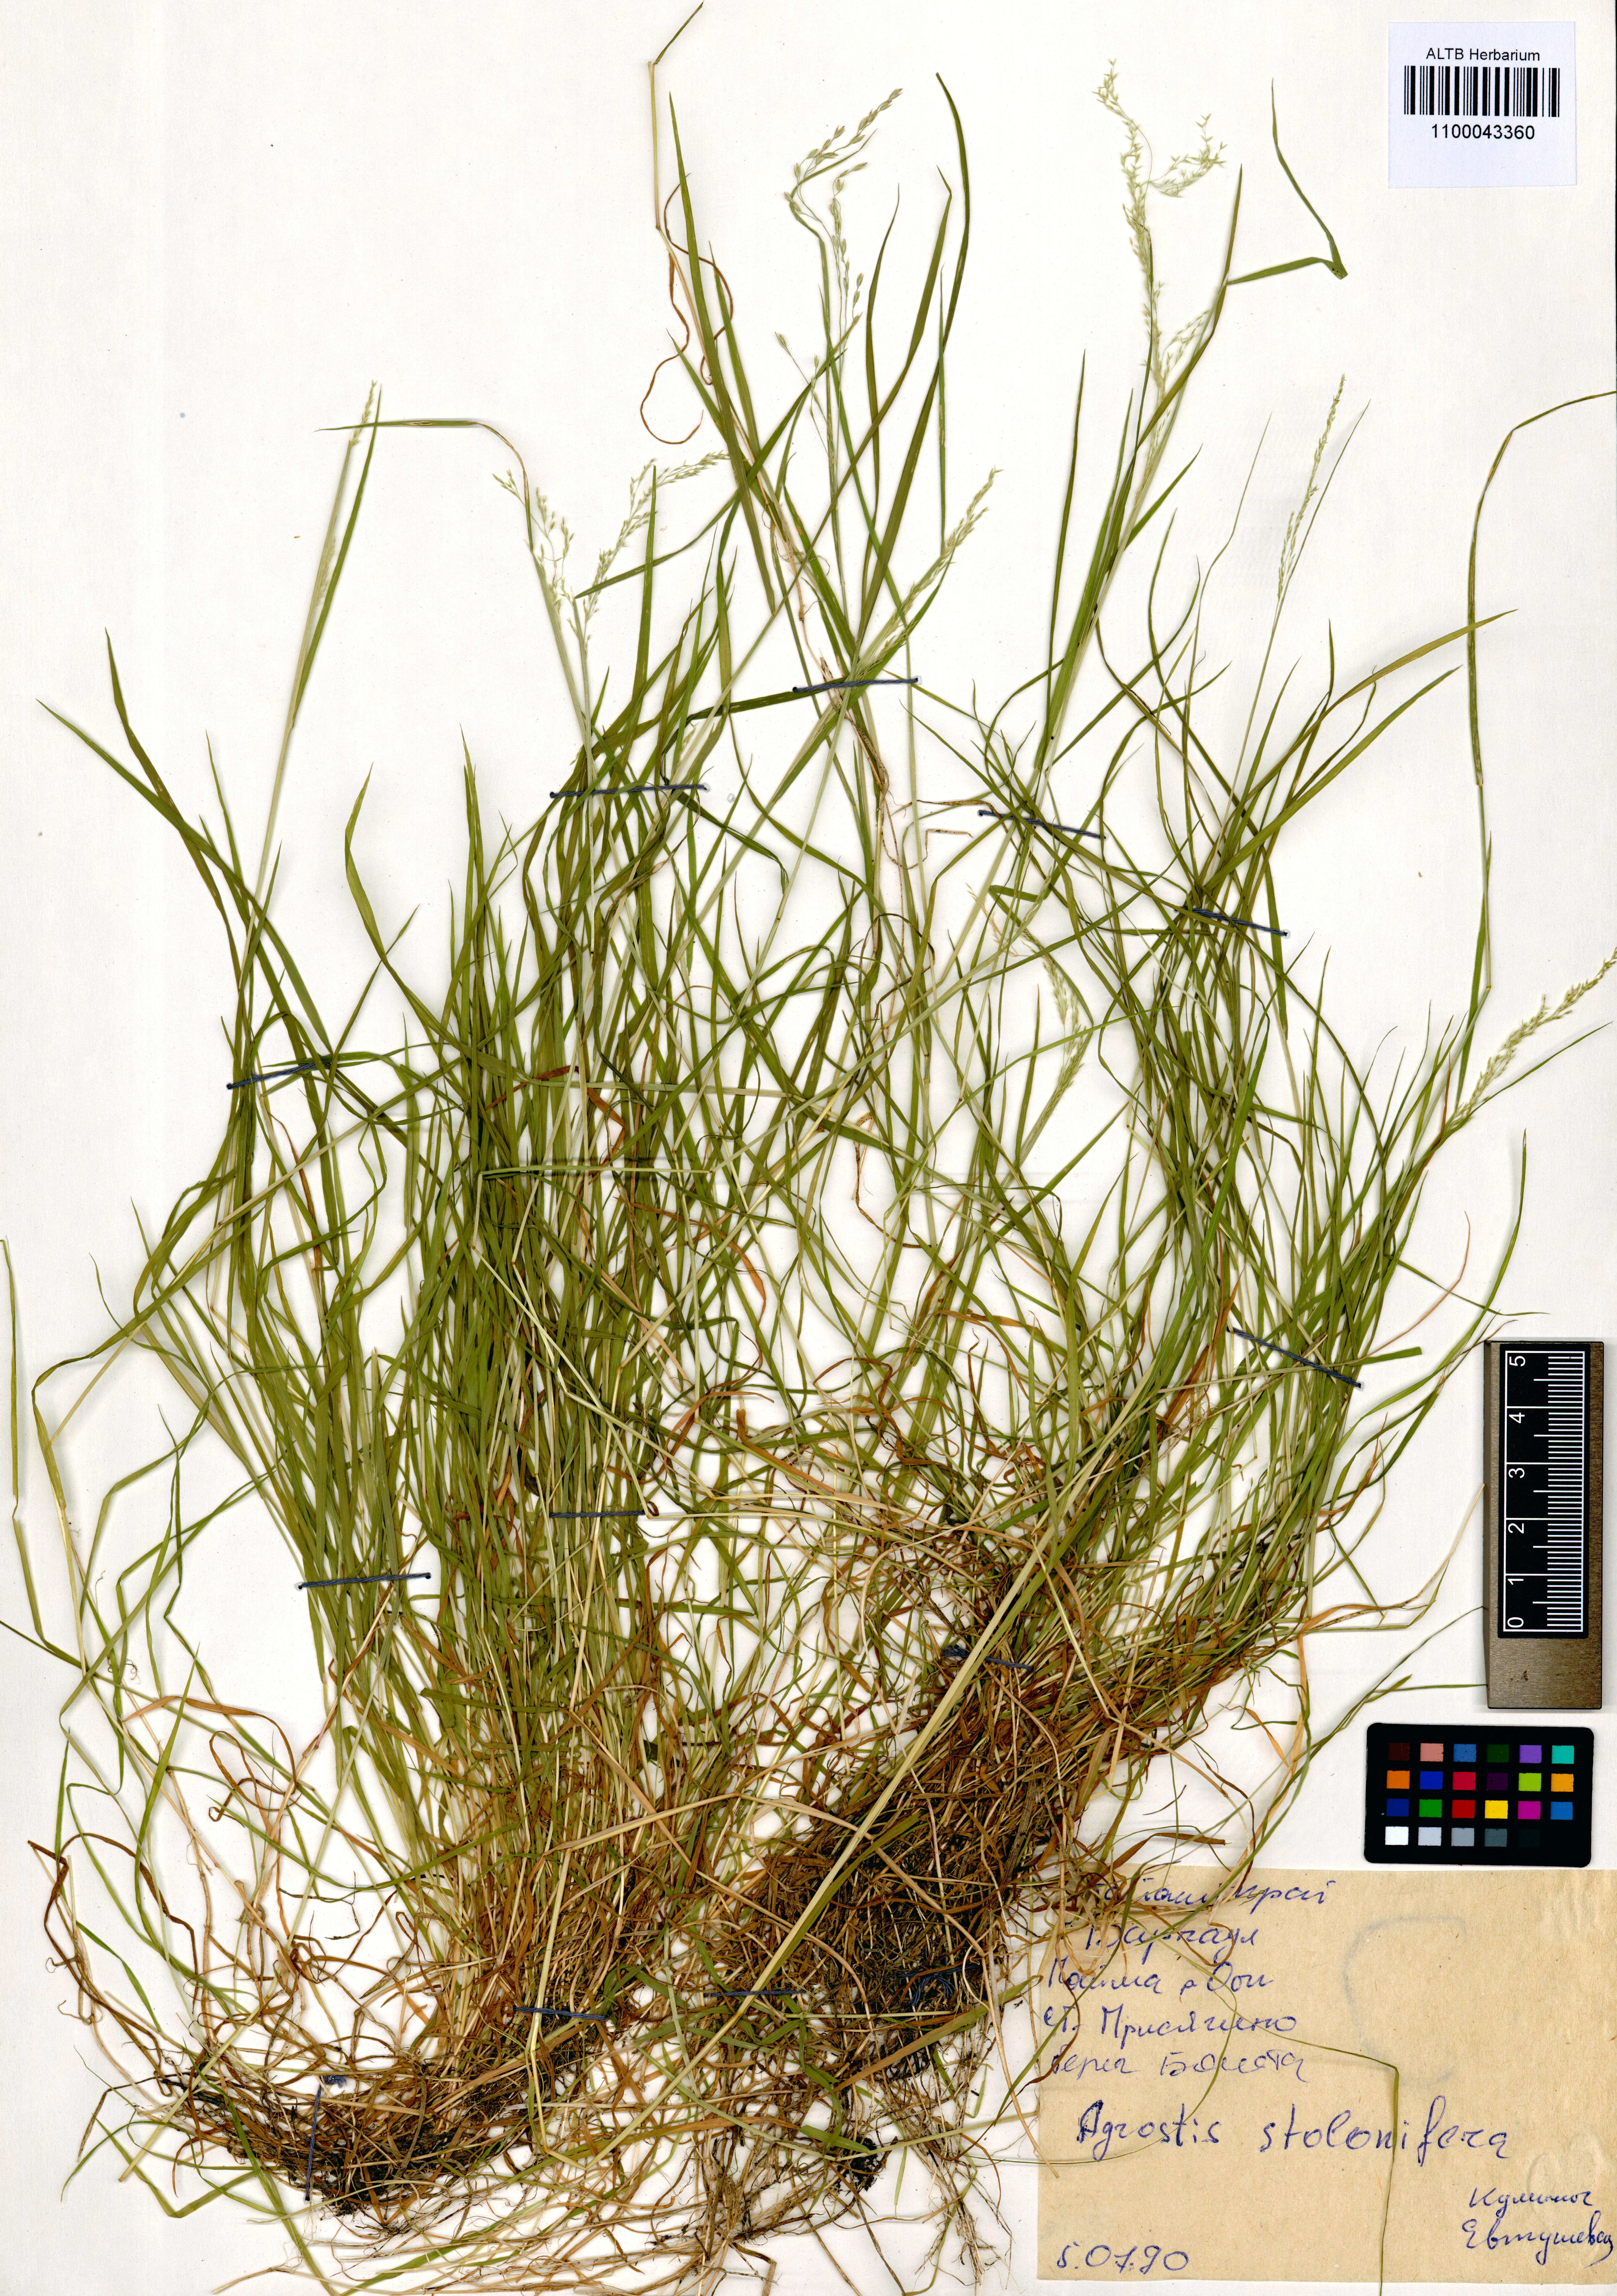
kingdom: Plantae
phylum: Tracheophyta
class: Liliopsida
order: Poales
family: Poaceae
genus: Agrostis
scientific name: Agrostis stolonifera
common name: Creeping bentgrass
